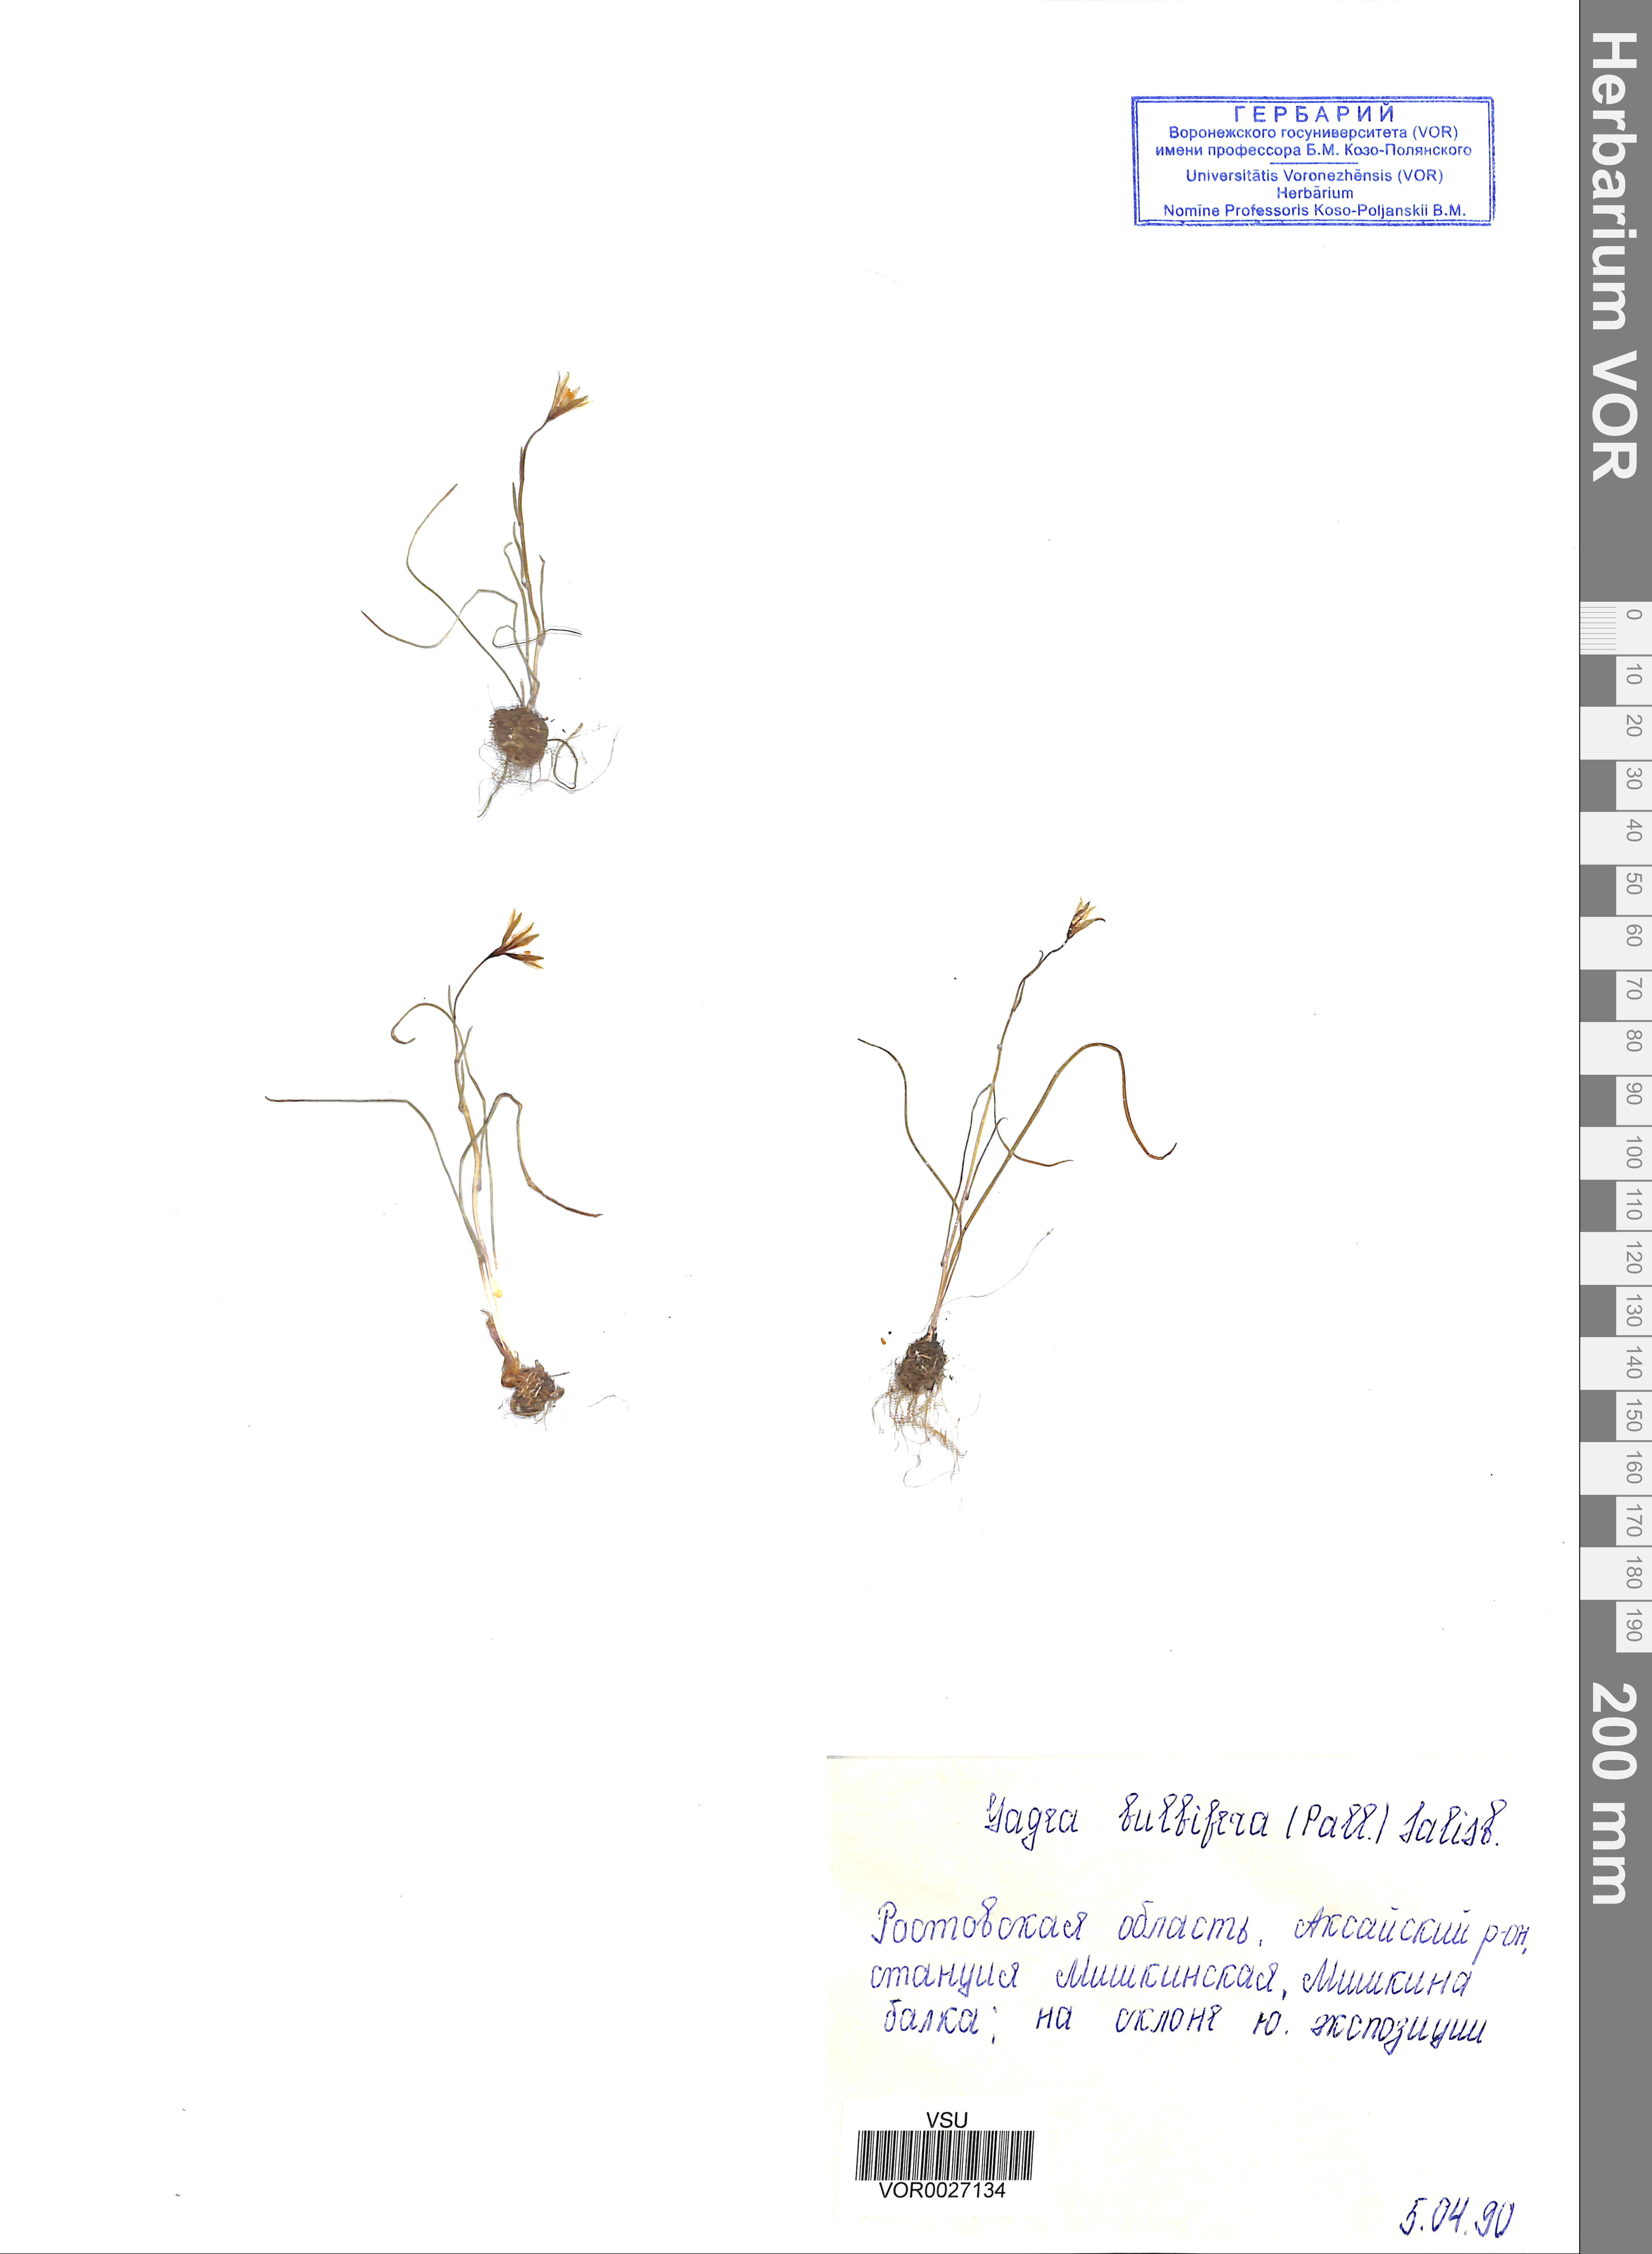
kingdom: Plantae
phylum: Tracheophyta
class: Liliopsida
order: Liliales
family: Liliaceae
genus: Gagea
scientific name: Gagea bulbifera
